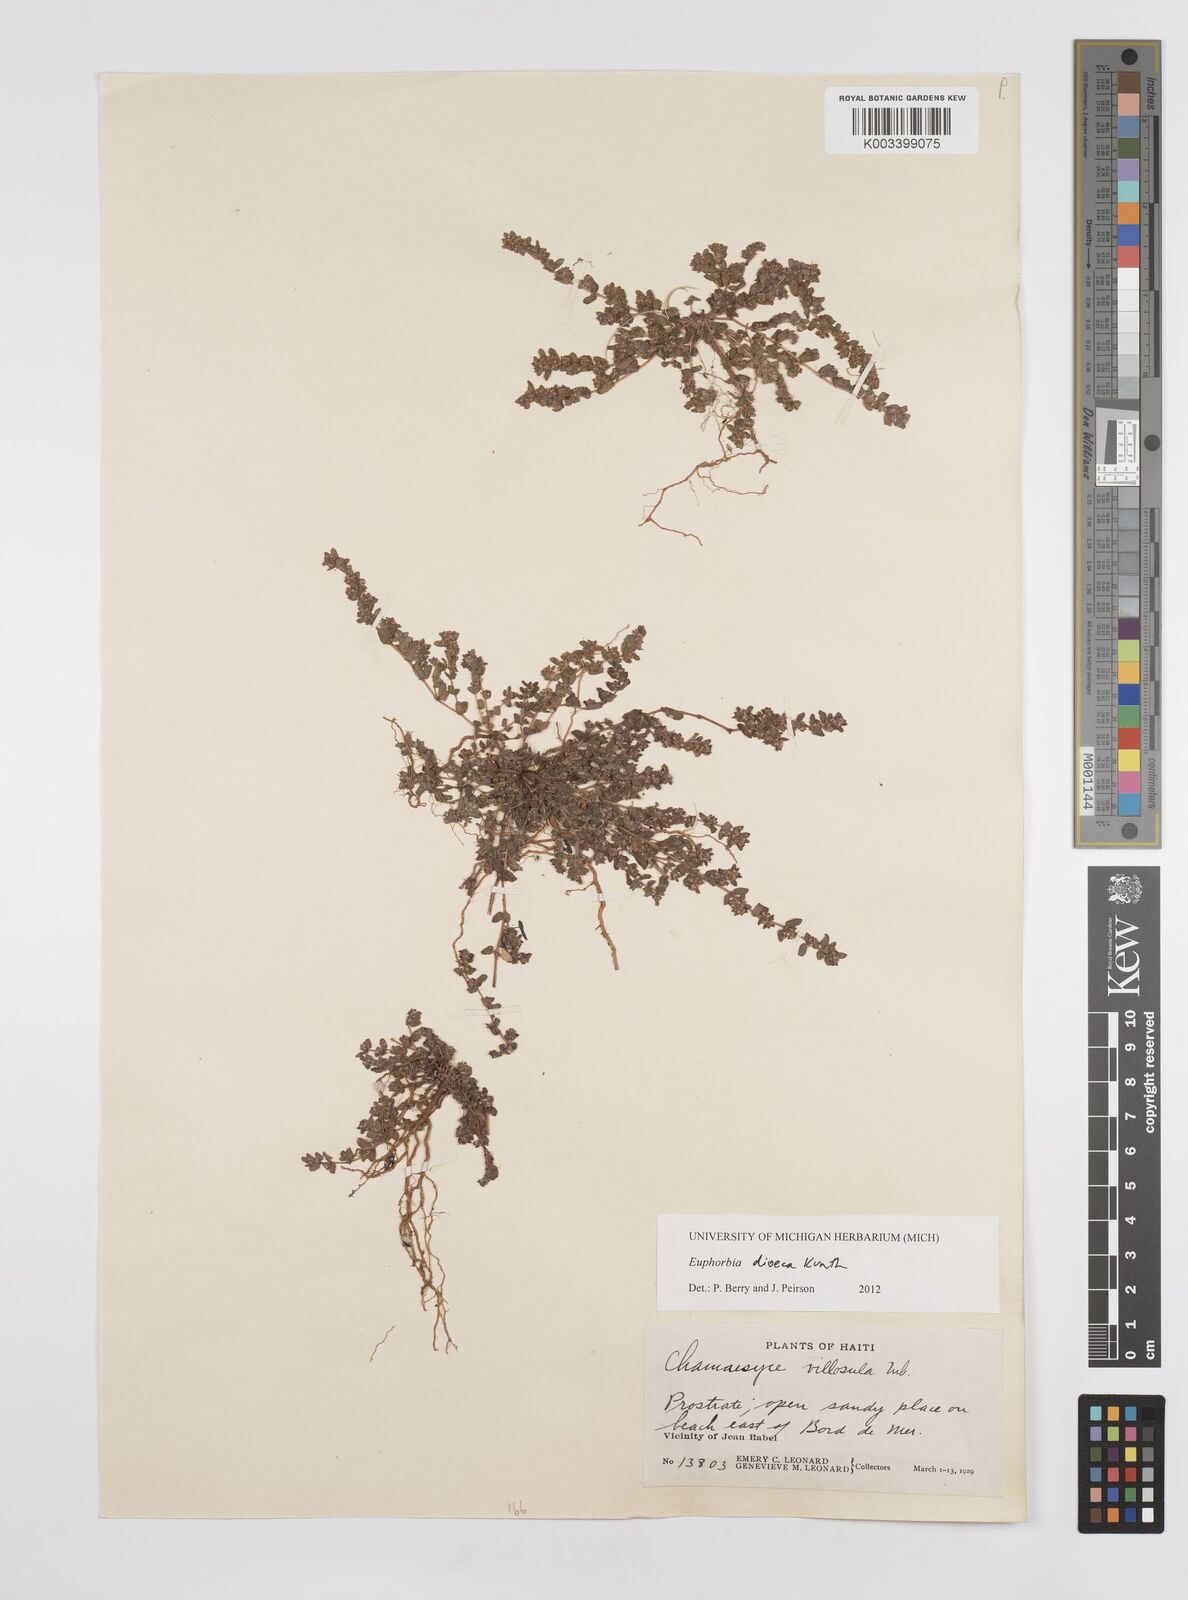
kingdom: Plantae
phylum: Tracheophyta
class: Magnoliopsida
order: Malpighiales
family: Euphorbiaceae
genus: Euphorbia
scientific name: Euphorbia dioeca
